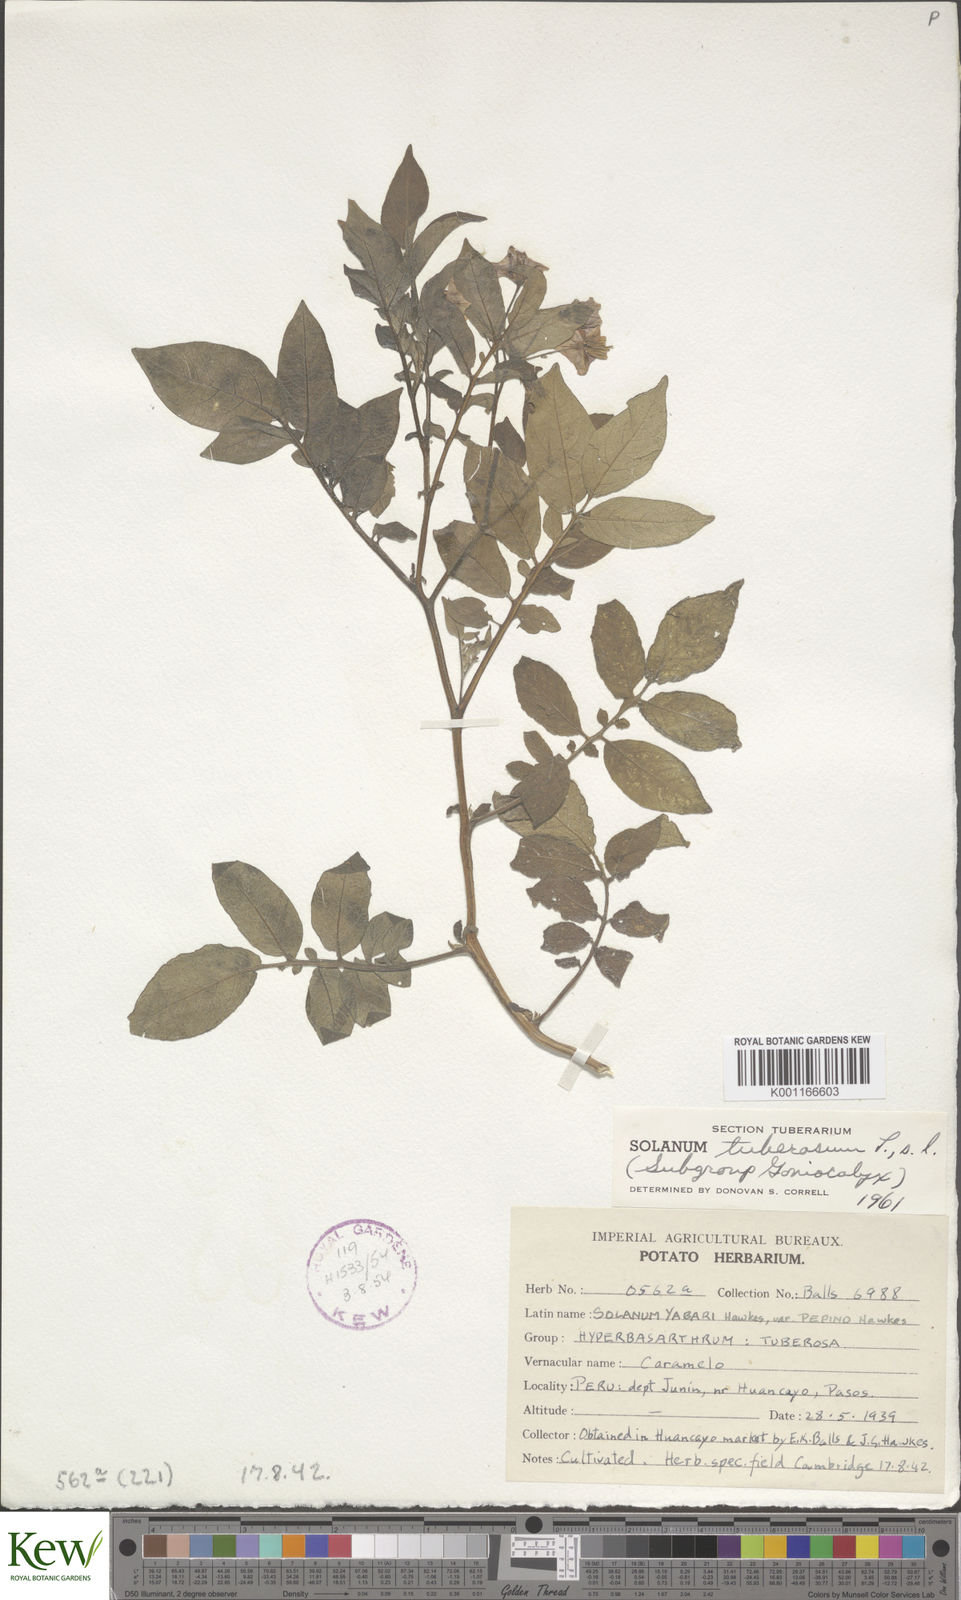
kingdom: Plantae
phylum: Tracheophyta
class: Magnoliopsida
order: Solanales
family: Solanaceae
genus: Solanum
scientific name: Solanum tuberosum
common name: Potato
